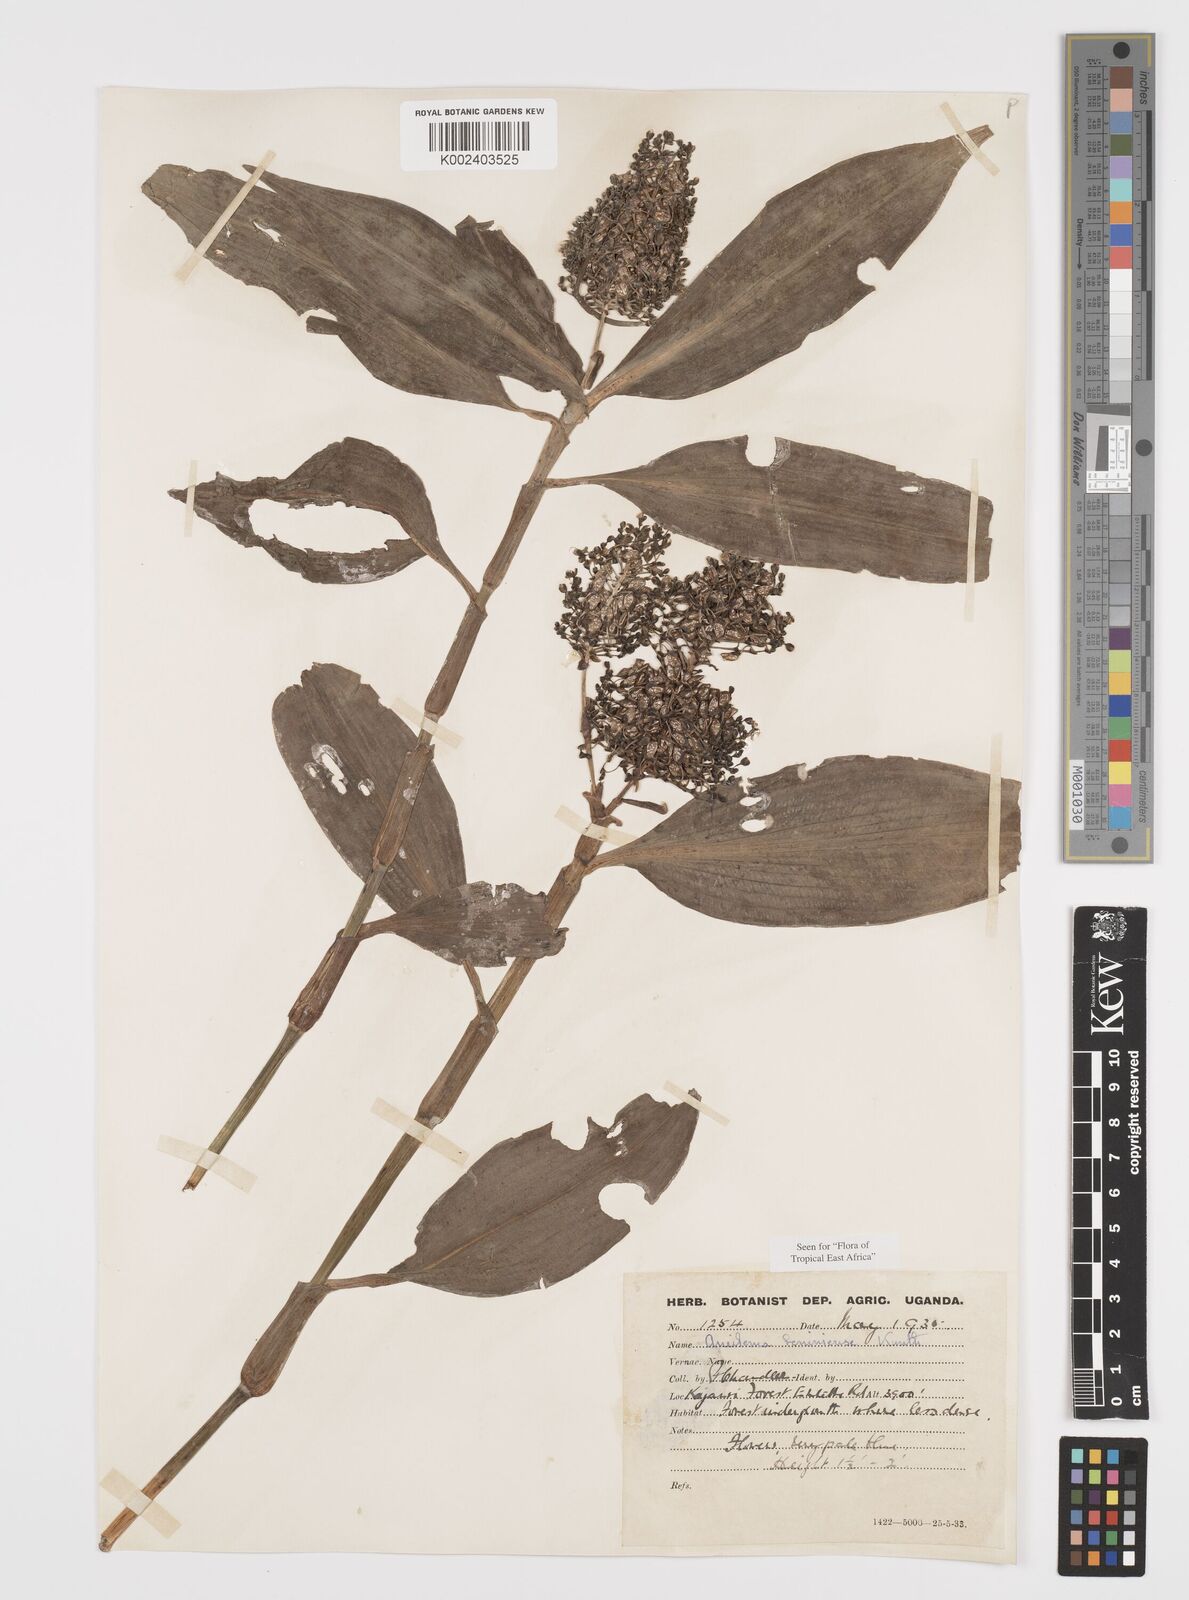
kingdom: Plantae
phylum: Tracheophyta
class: Liliopsida
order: Commelinales
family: Commelinaceae
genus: Aneilema
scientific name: Aneilema beniniense
